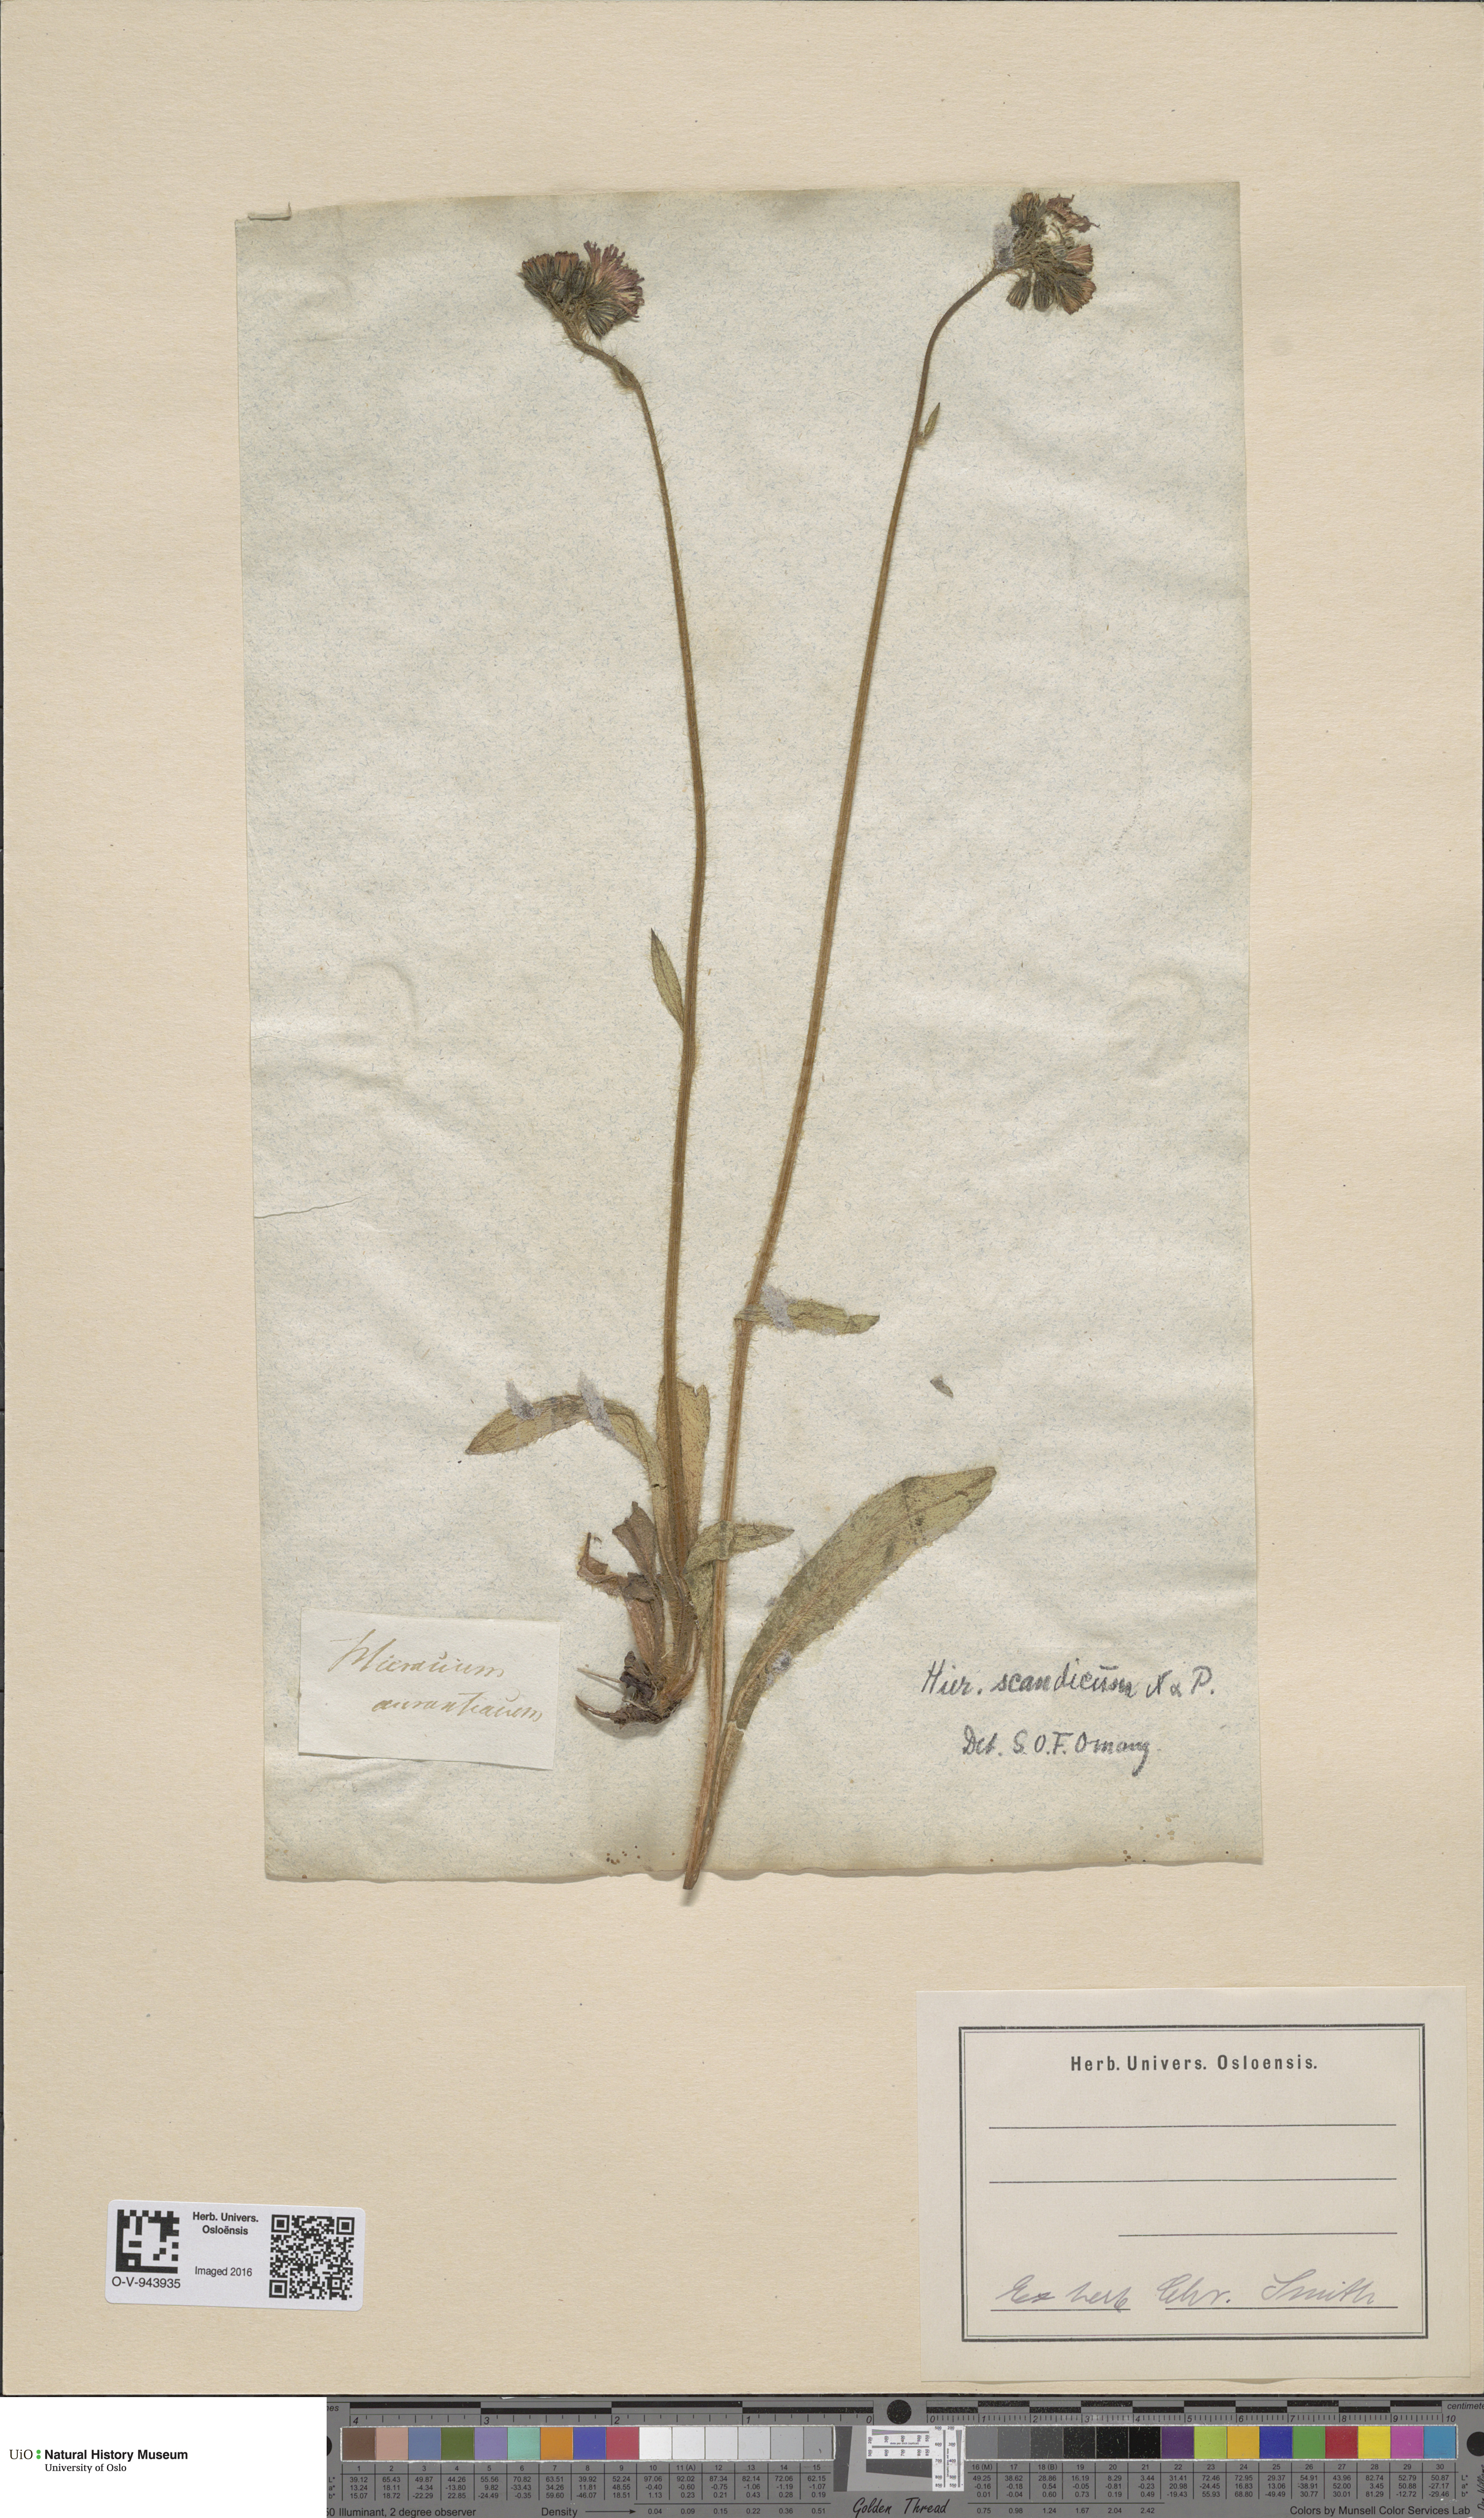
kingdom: Plantae
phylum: Tracheophyta
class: Magnoliopsida
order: Asterales
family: Asteraceae
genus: Pilosella
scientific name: Pilosella aurantiaca
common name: Fox-and-cubs
